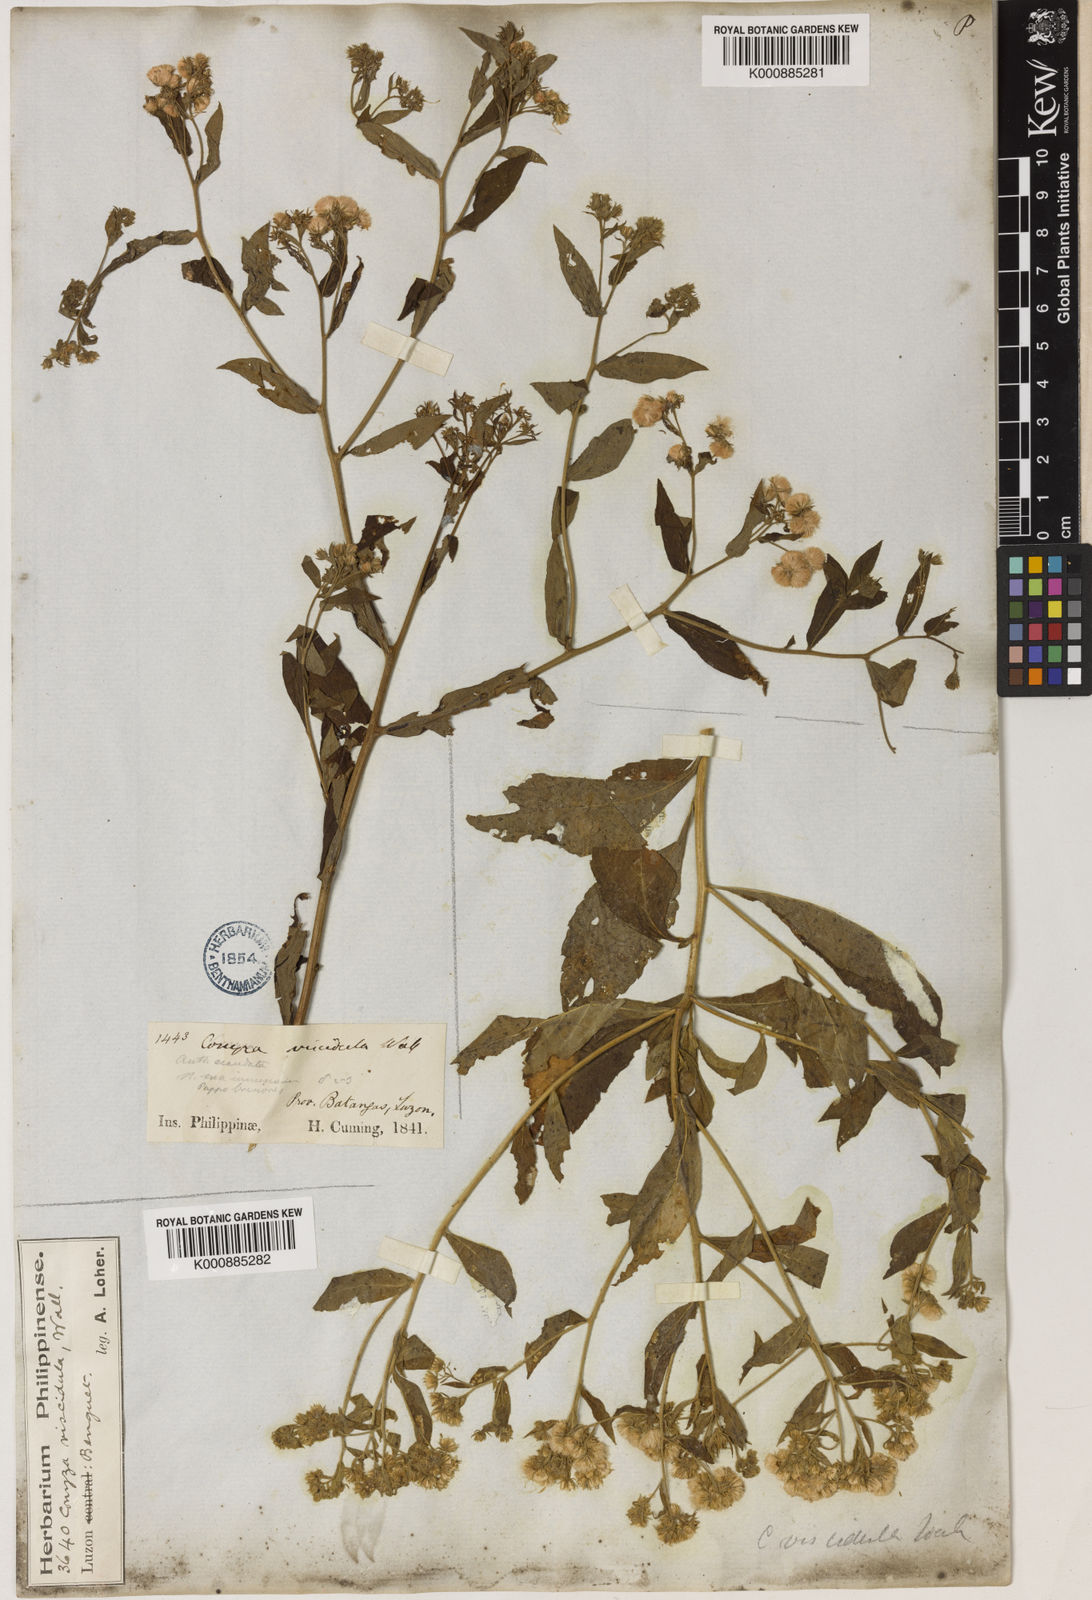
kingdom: Plantae
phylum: Tracheophyta
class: Magnoliopsida
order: Asterales
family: Asteraceae
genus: Eschenbachia
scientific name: Eschenbachia leucantha
